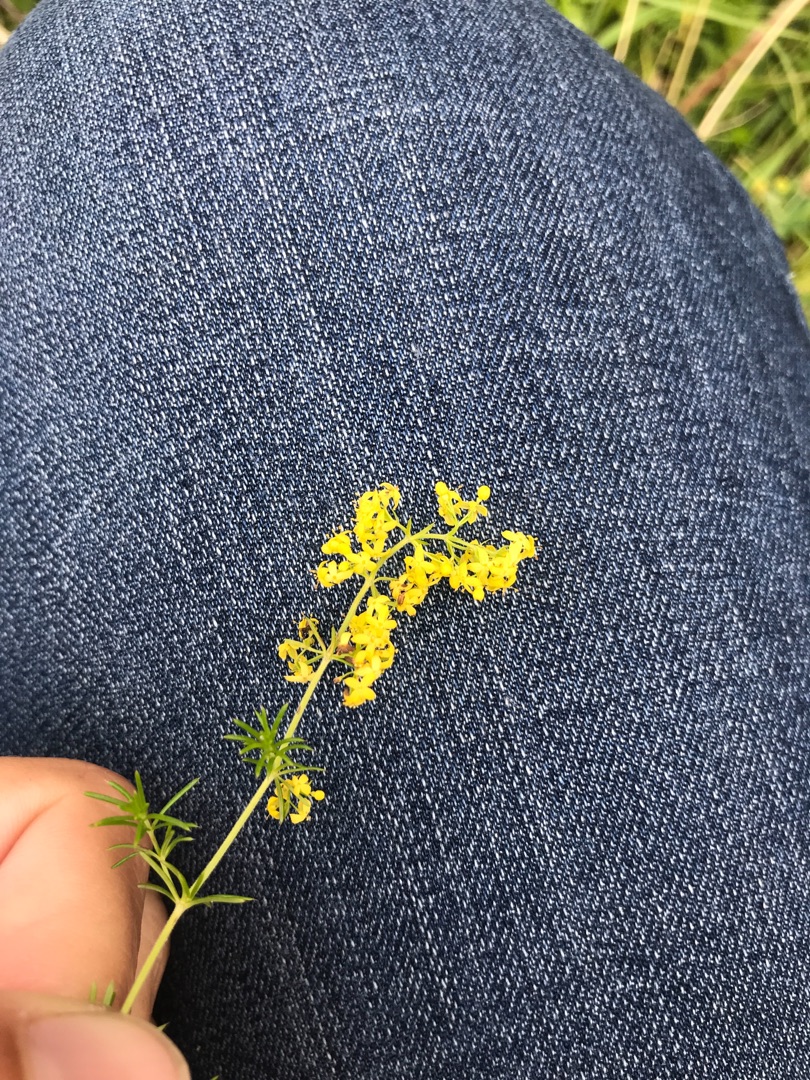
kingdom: Plantae
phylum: Tracheophyta
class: Magnoliopsida
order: Gentianales
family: Rubiaceae
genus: Galium
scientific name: Galium verum
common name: Gul snerre
